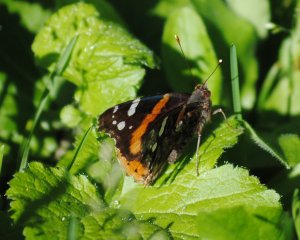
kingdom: Animalia
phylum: Arthropoda
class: Insecta
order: Lepidoptera
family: Nymphalidae
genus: Vanessa
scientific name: Vanessa atalanta
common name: Red Admiral
